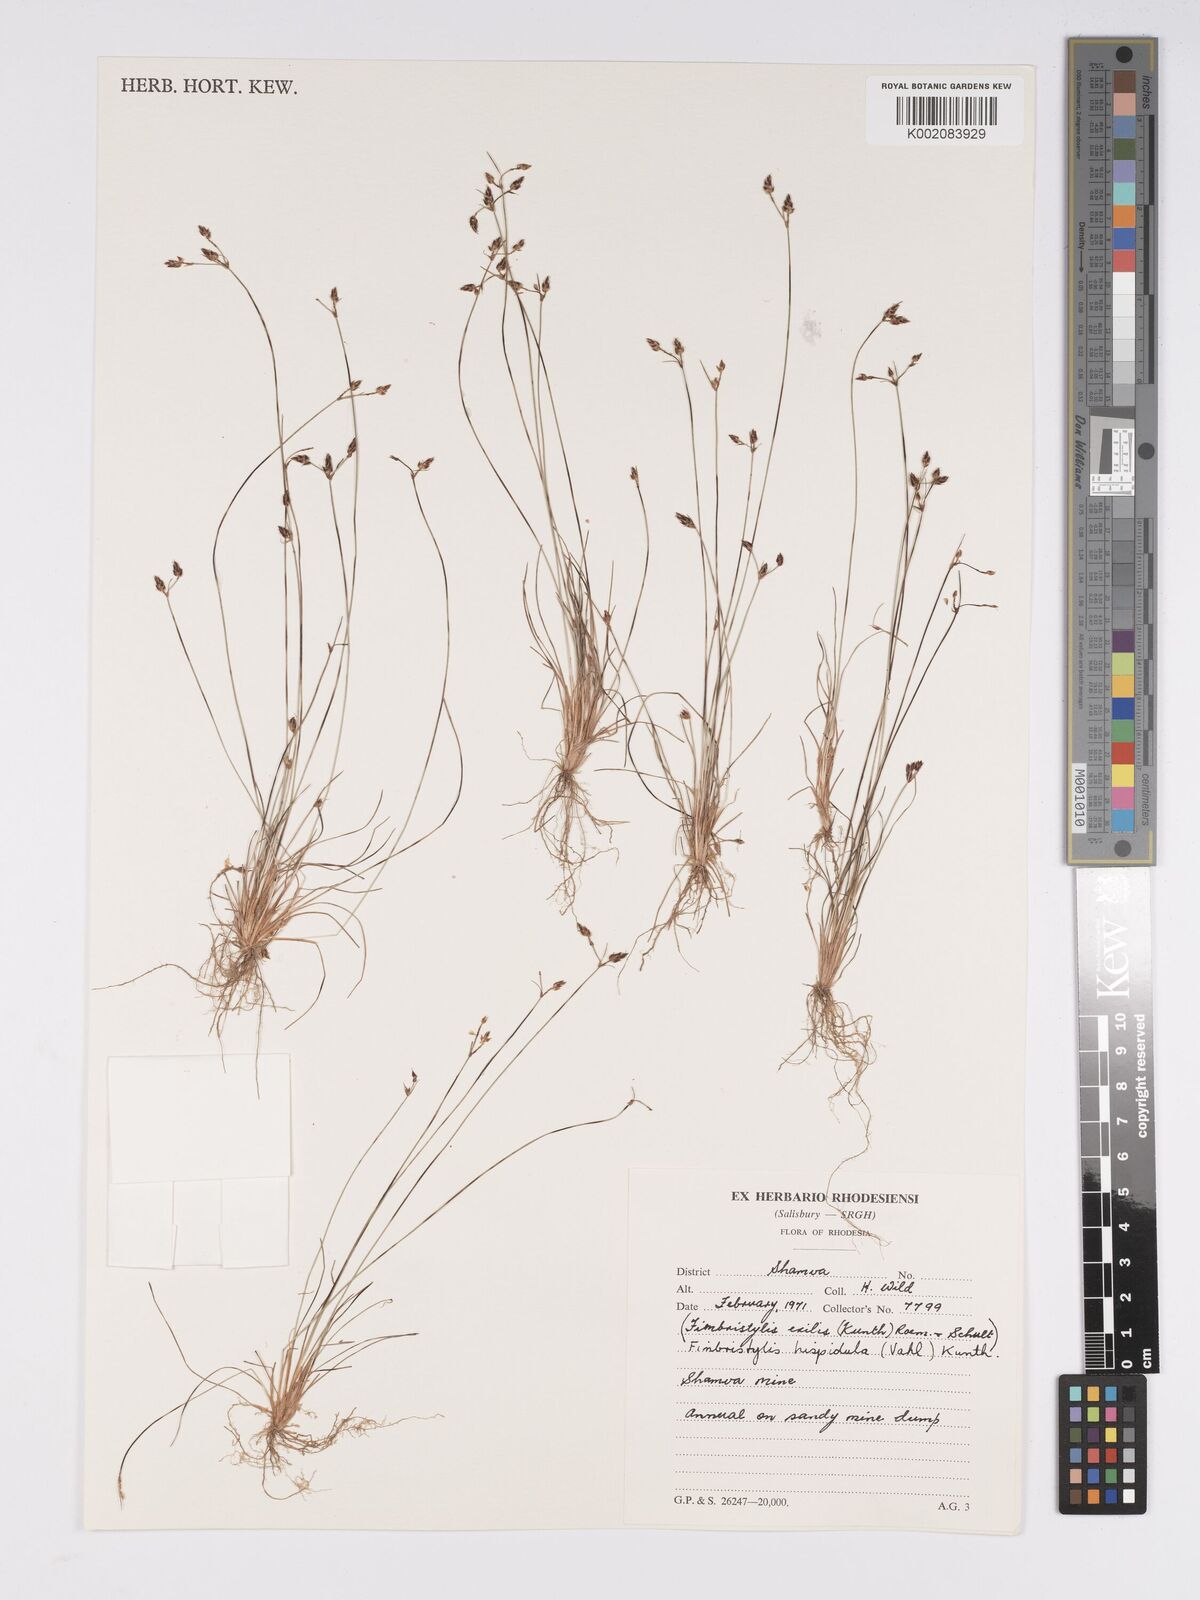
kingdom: Plantae
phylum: Tracheophyta
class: Liliopsida
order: Poales
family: Cyperaceae
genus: Bulbostylis
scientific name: Bulbostylis hispidula
